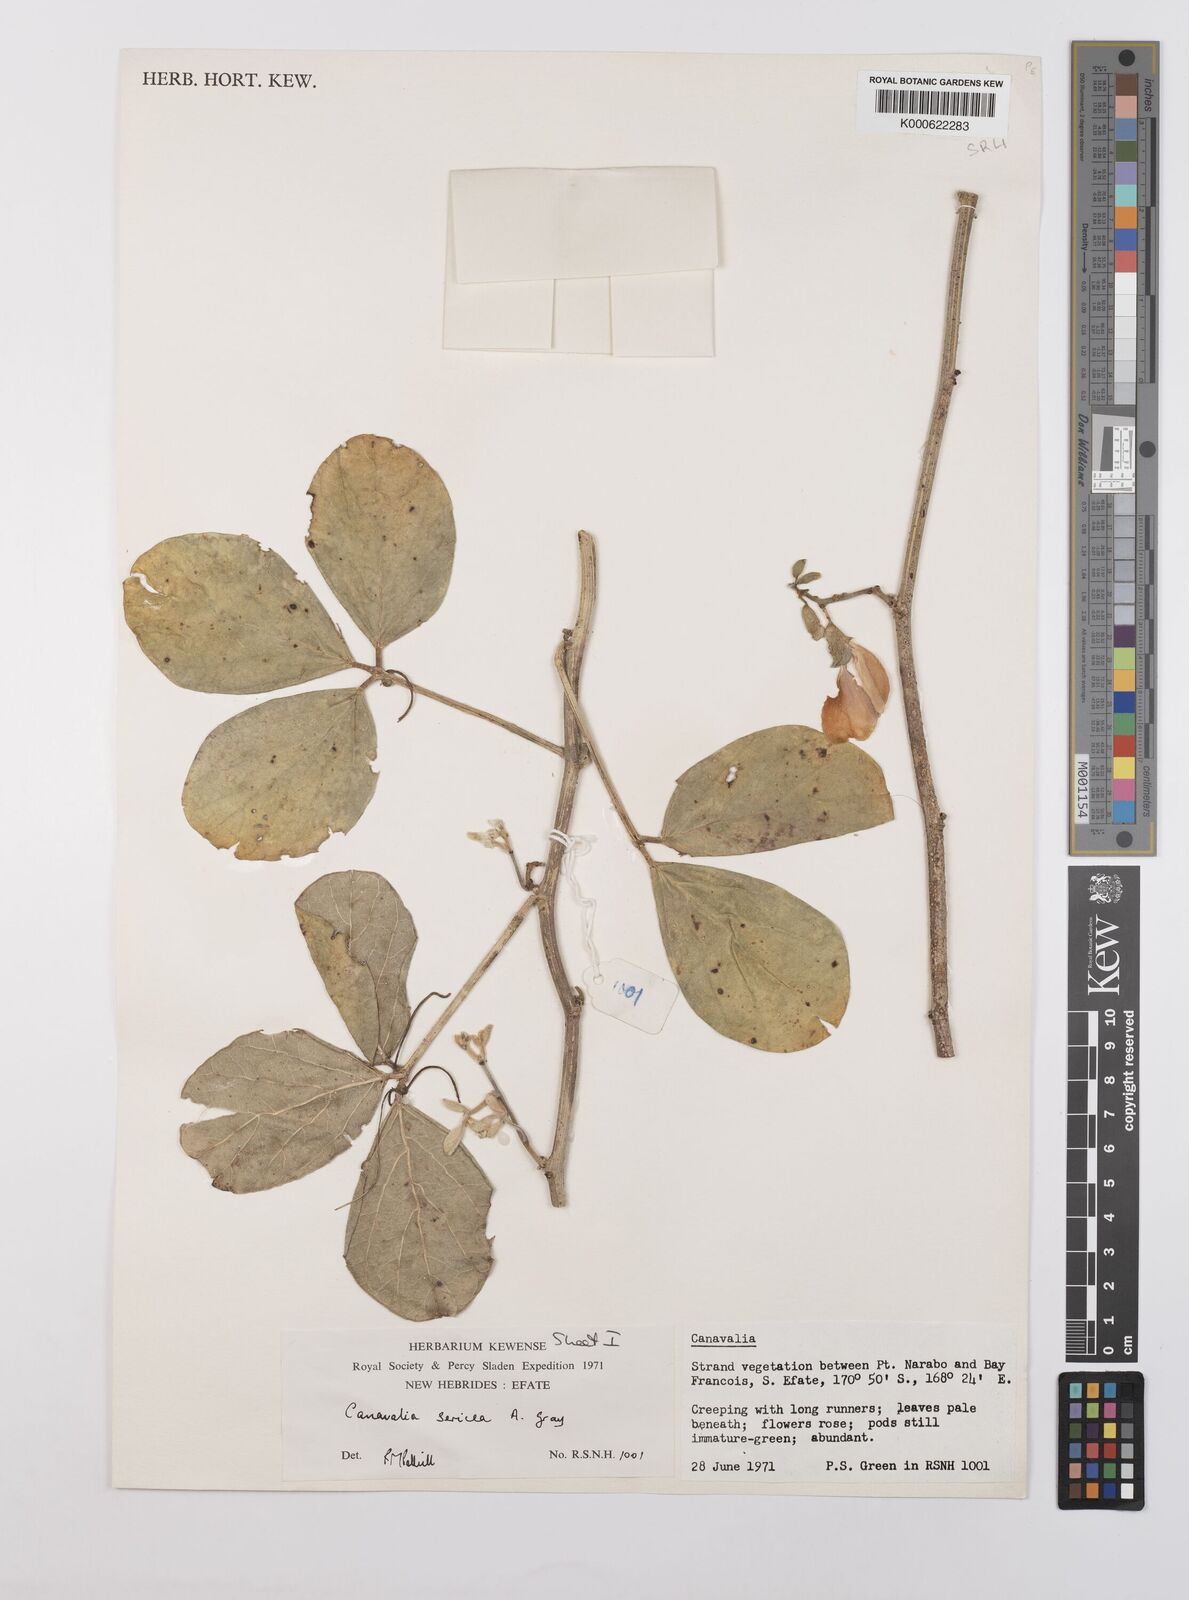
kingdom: Plantae
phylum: Tracheophyta
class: Magnoliopsida
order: Fabales
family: Fabaceae
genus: Canavalia
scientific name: Canavalia sericea
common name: Silky jackbean
